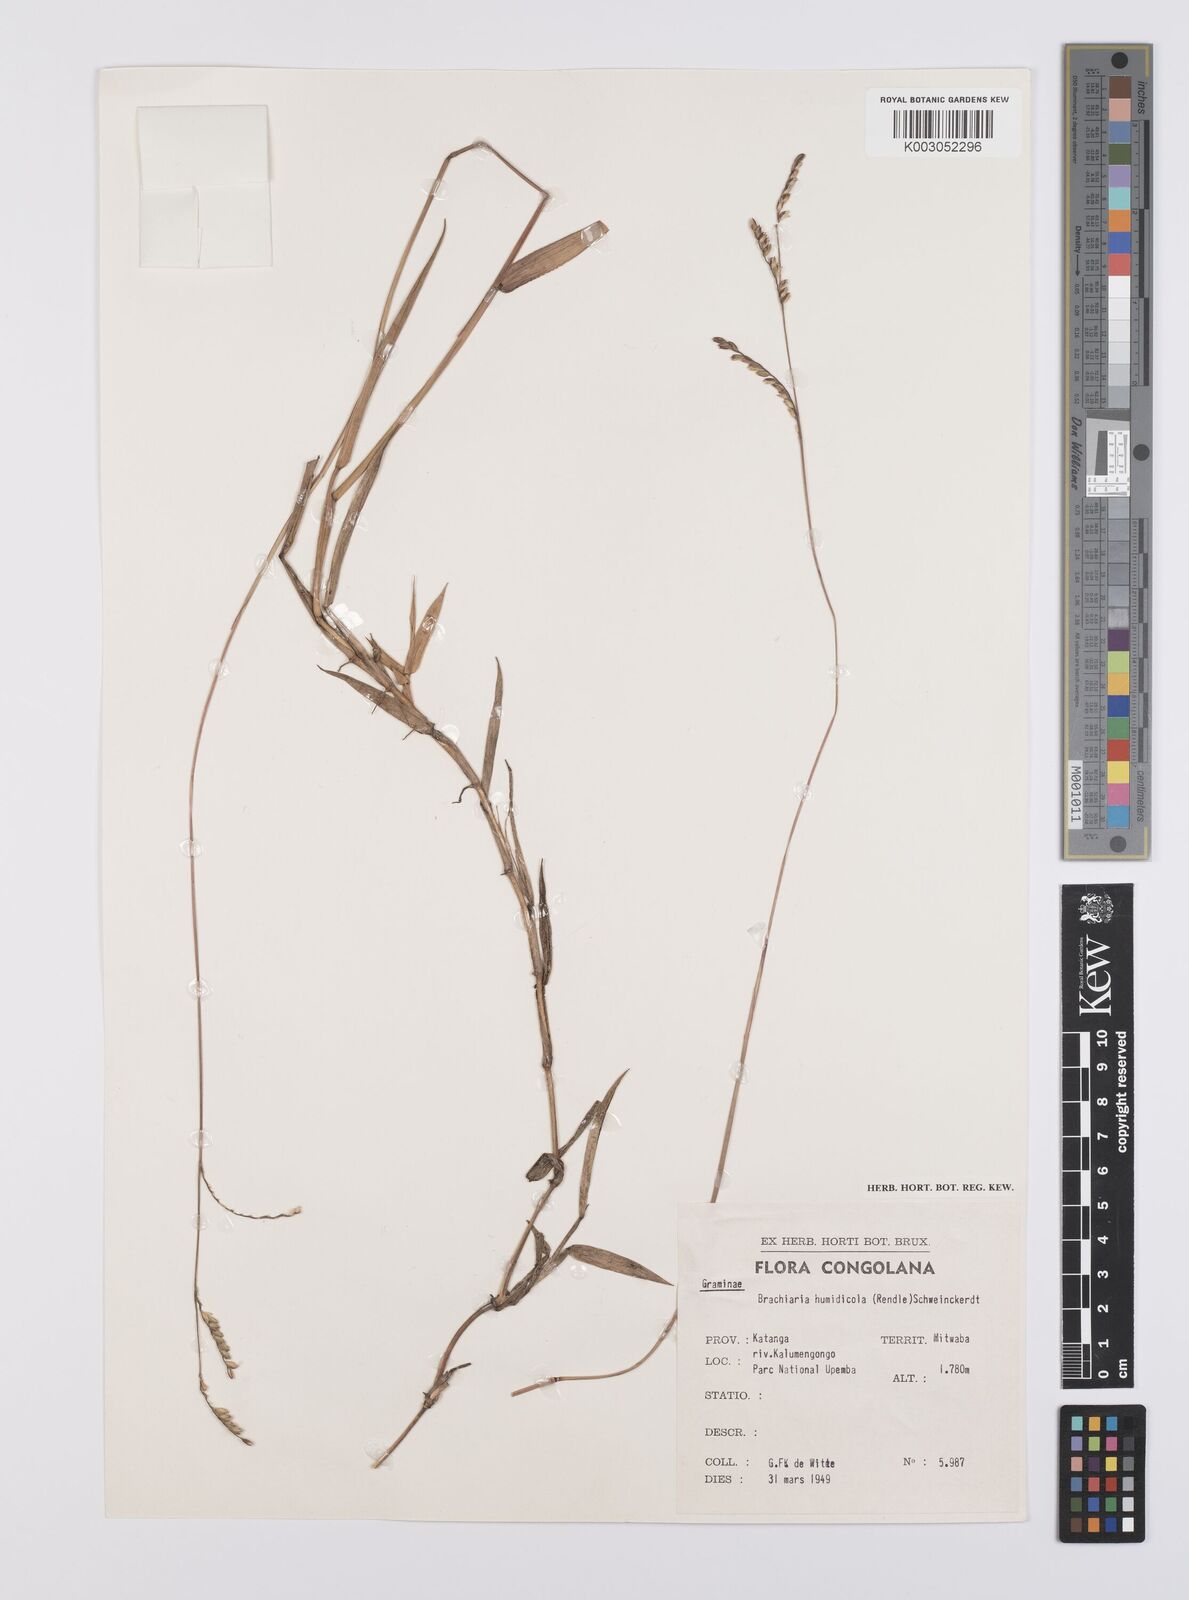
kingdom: Plantae
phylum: Tracheophyta
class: Liliopsida
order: Poales
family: Poaceae
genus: Urochloa
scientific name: Urochloa bovonei
